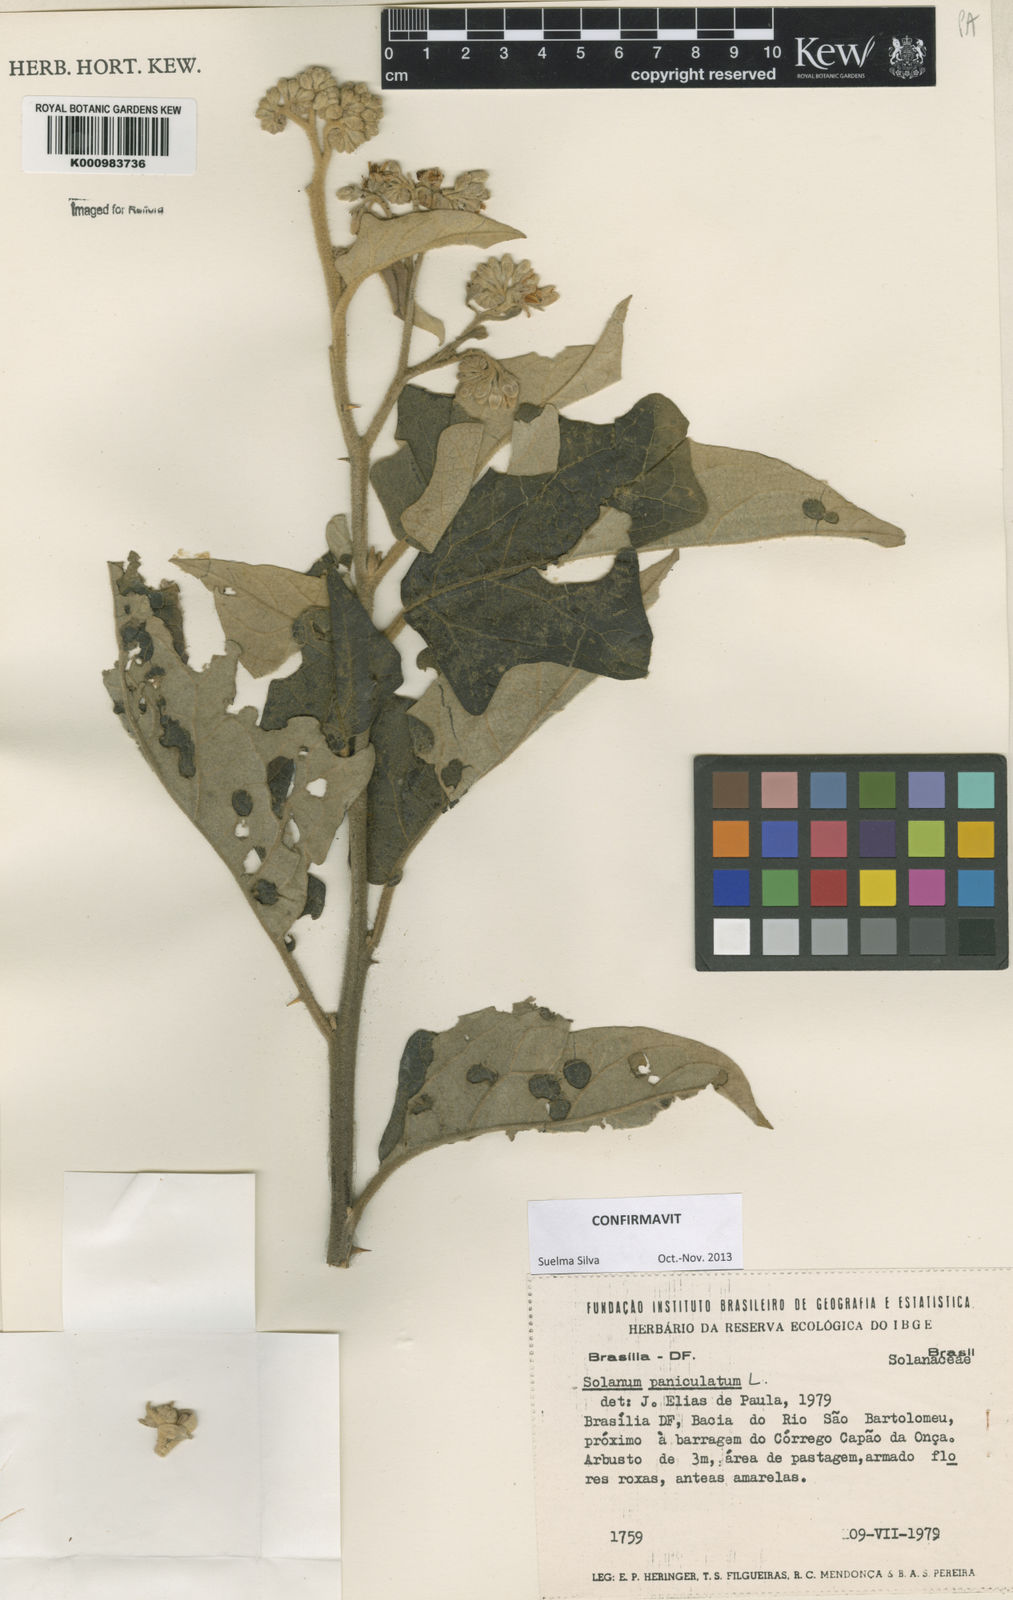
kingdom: Plantae
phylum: Tracheophyta
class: Magnoliopsida
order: Solanales
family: Solanaceae
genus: Solanum
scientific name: Solanum paniculatum
